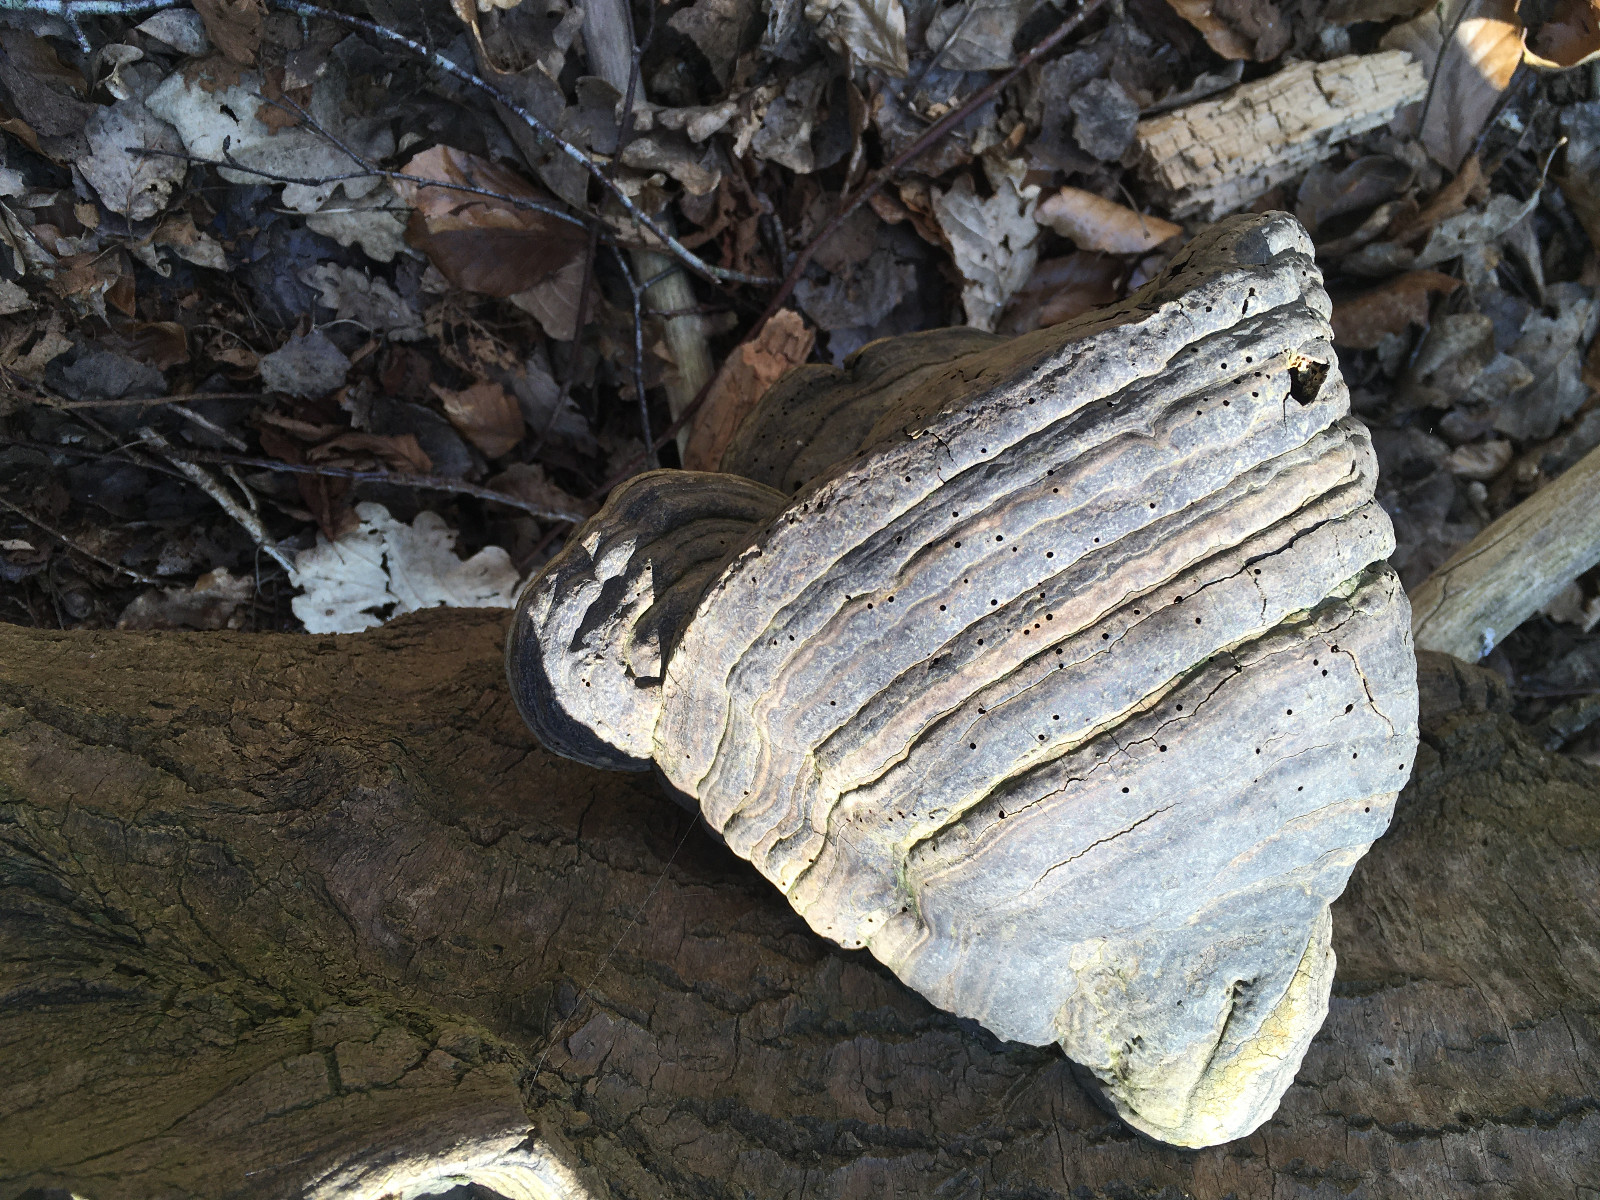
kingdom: Fungi
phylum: Basidiomycota
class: Agaricomycetes
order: Polyporales
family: Polyporaceae
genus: Fomes
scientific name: Fomes fomentarius
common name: tøndersvamp
